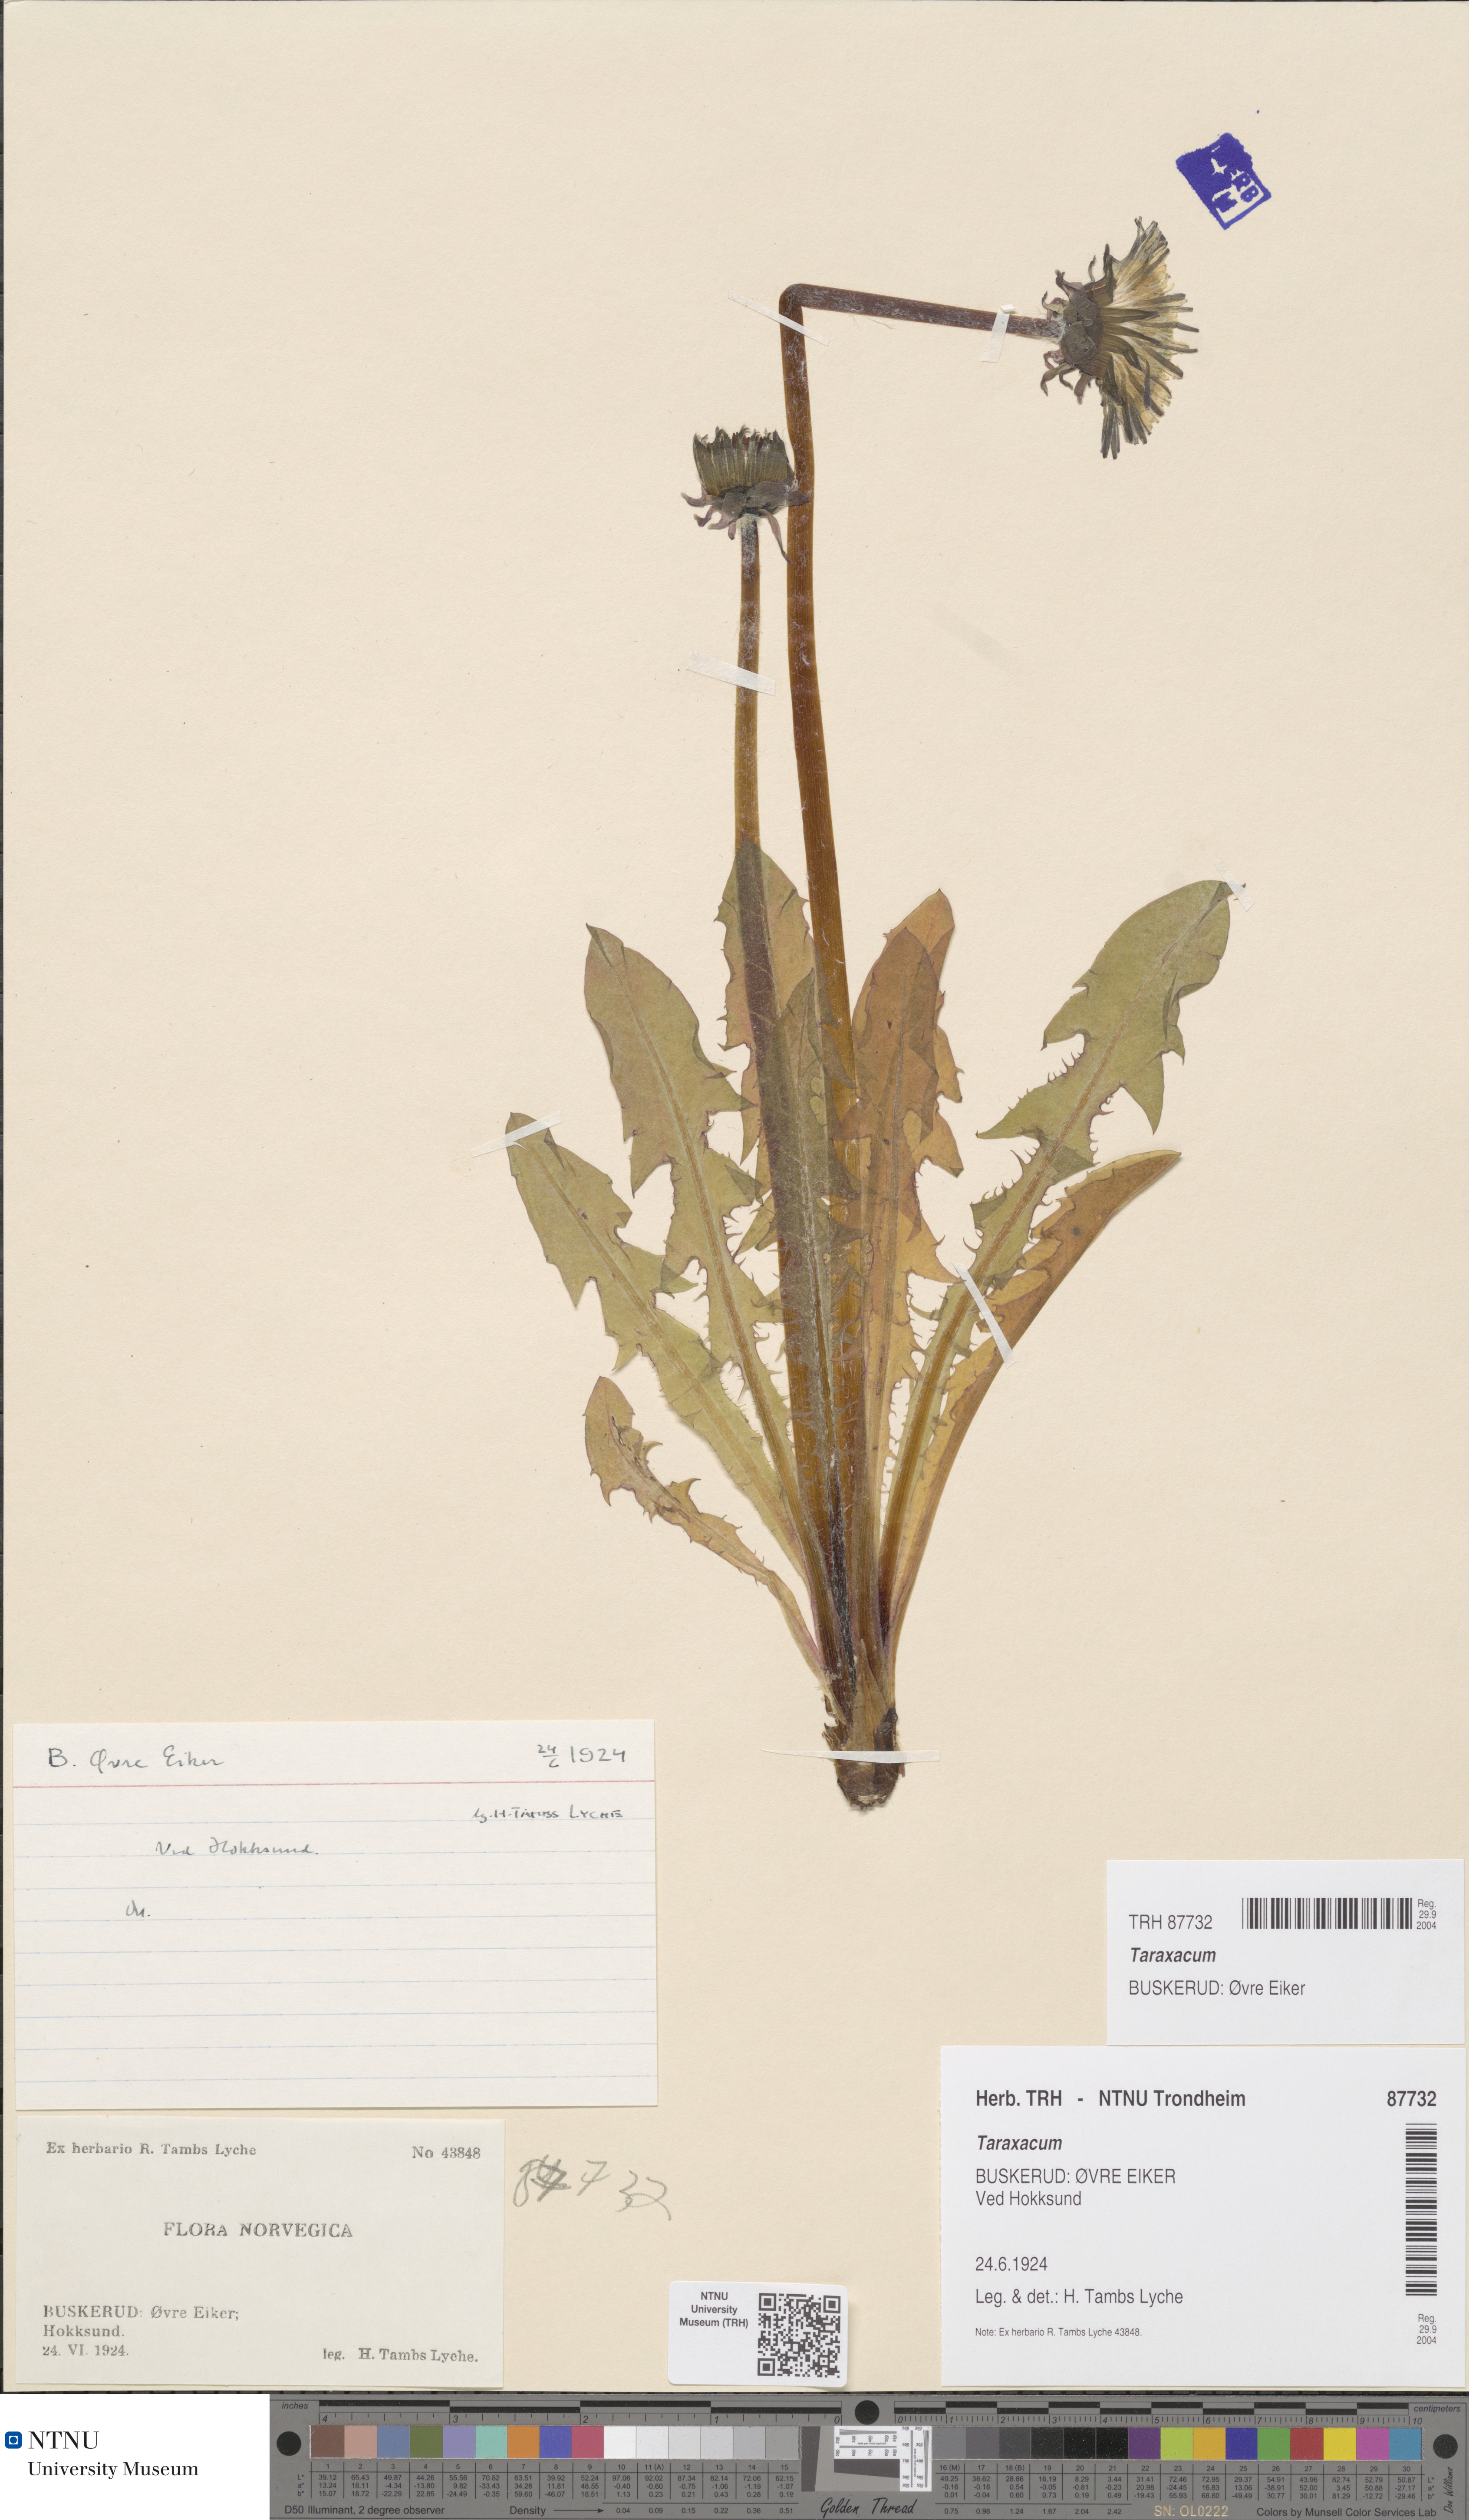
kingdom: Plantae
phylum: Tracheophyta
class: Magnoliopsida
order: Asterales
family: Asteraceae
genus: Taraxacum
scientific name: Taraxacum
